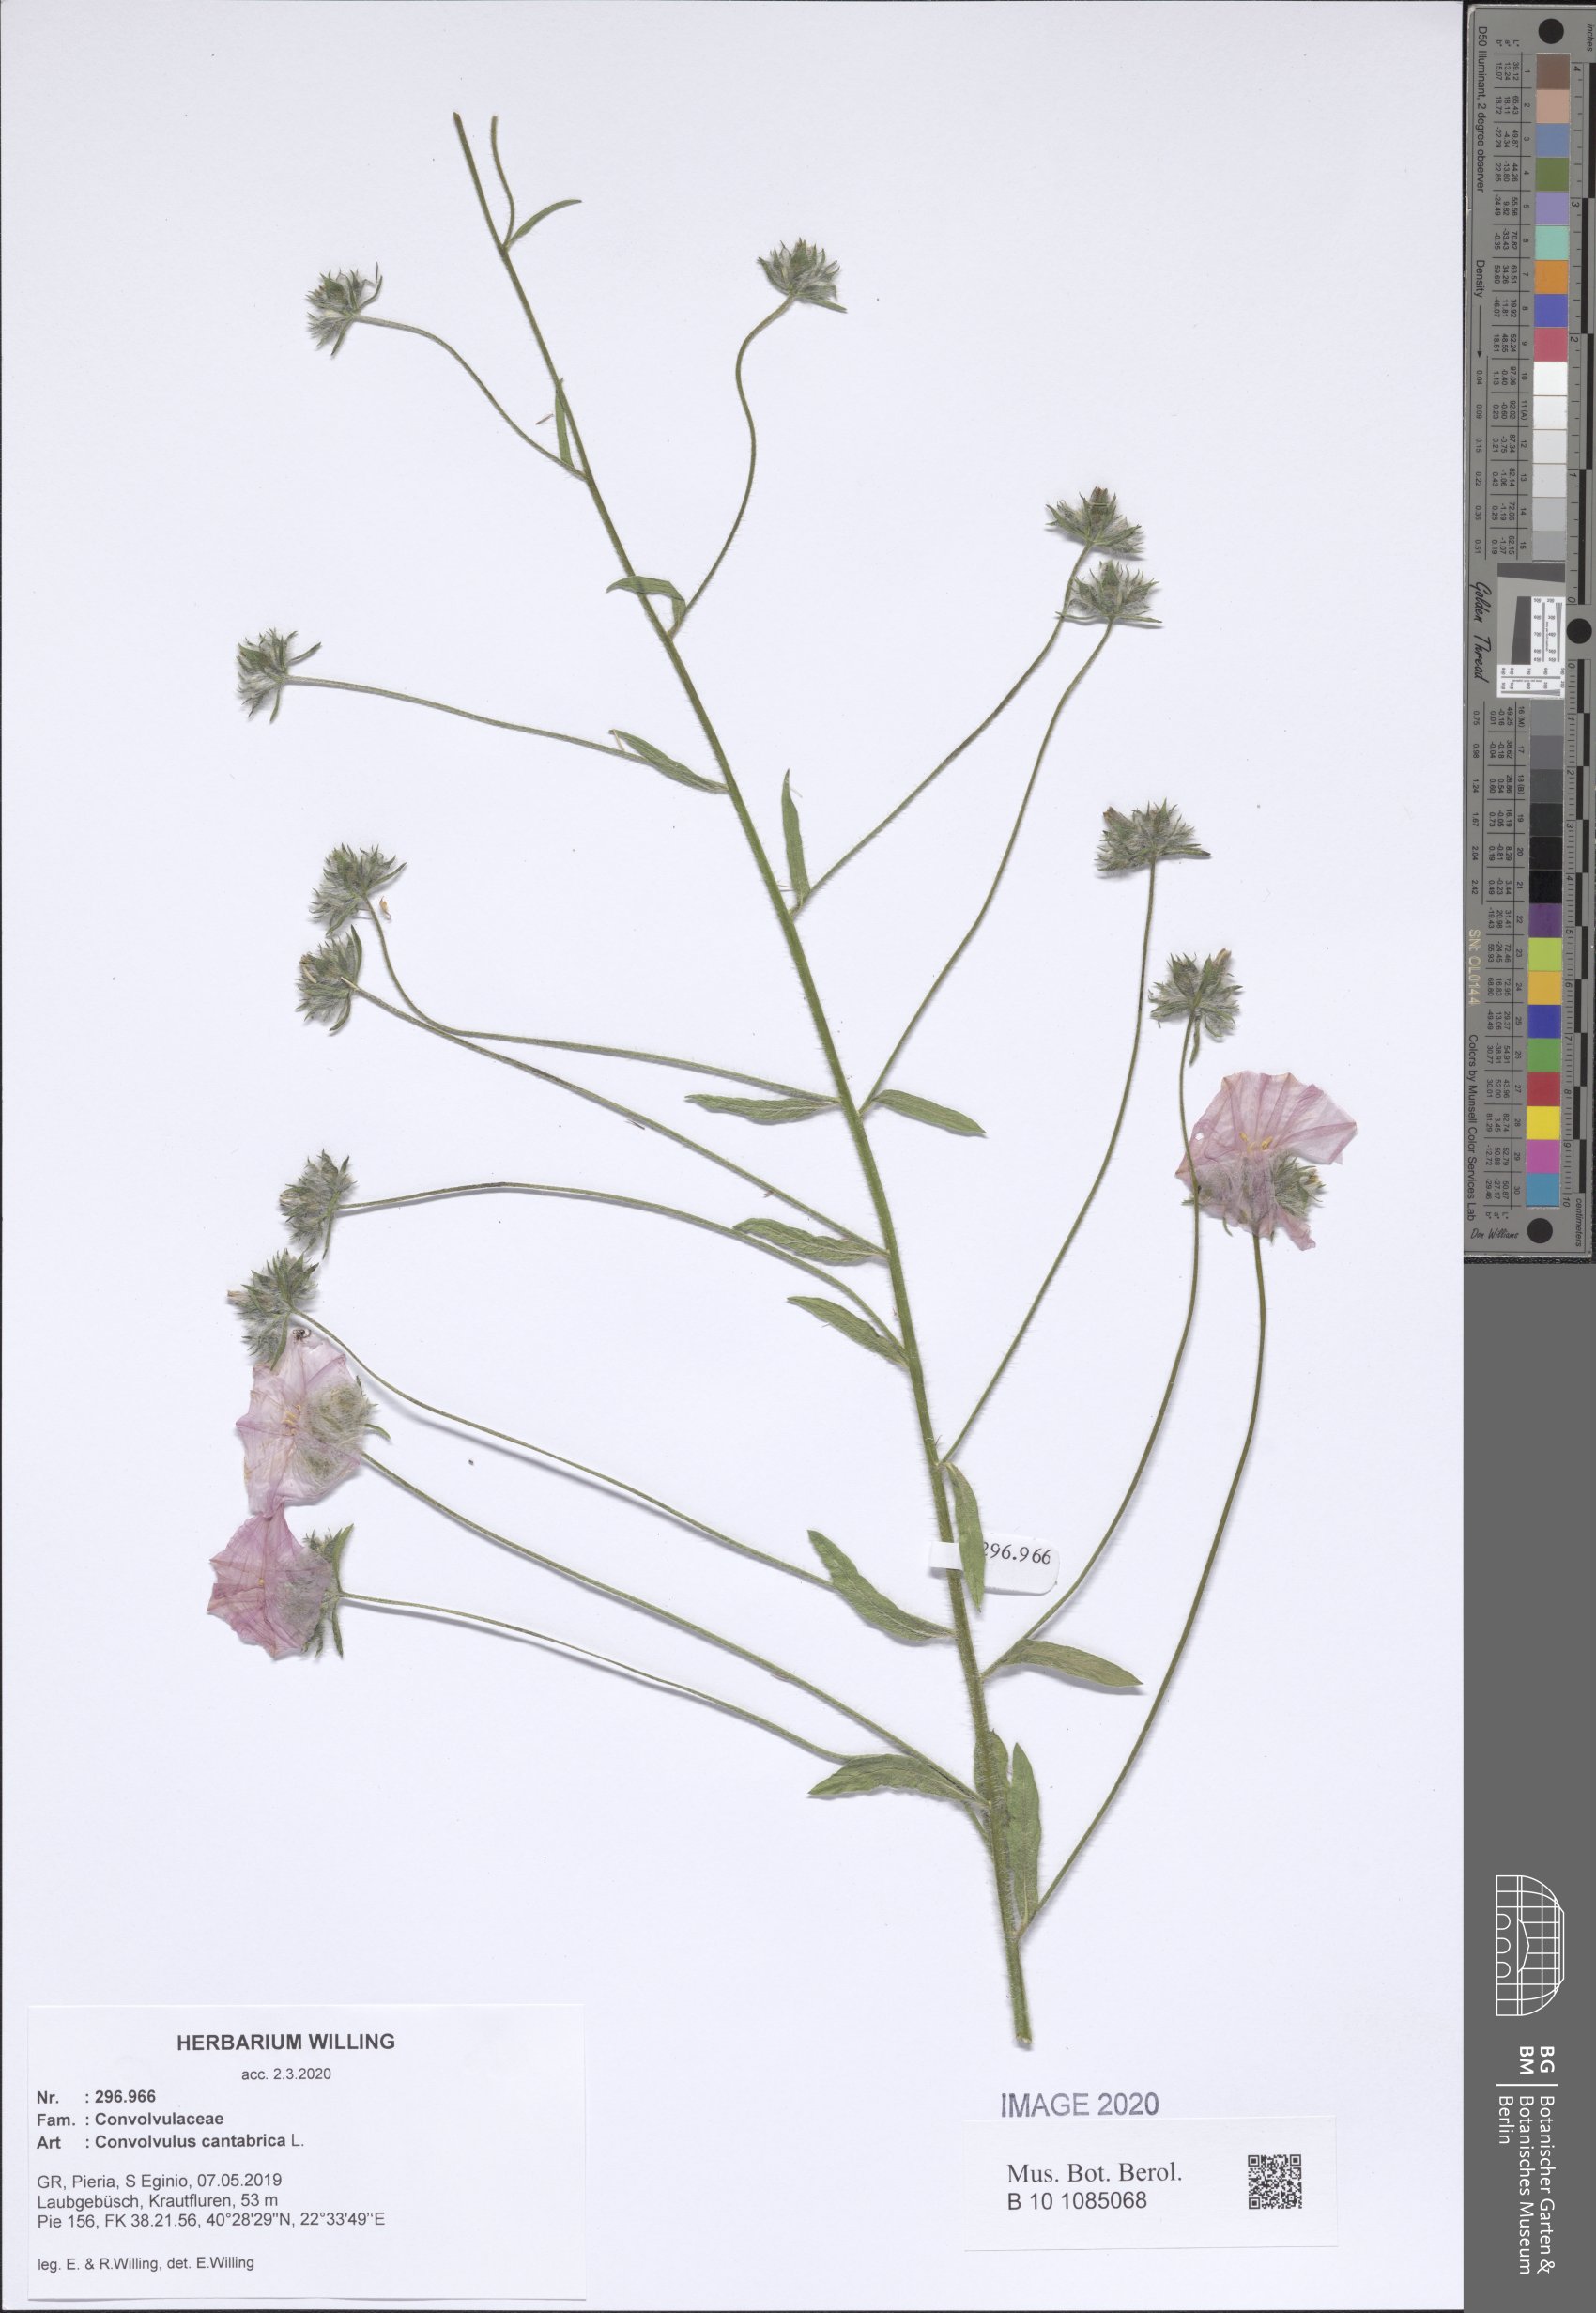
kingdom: Plantae
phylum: Tracheophyta
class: Magnoliopsida
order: Solanales
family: Convolvulaceae
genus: Convolvulus
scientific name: Convolvulus cantabrica
